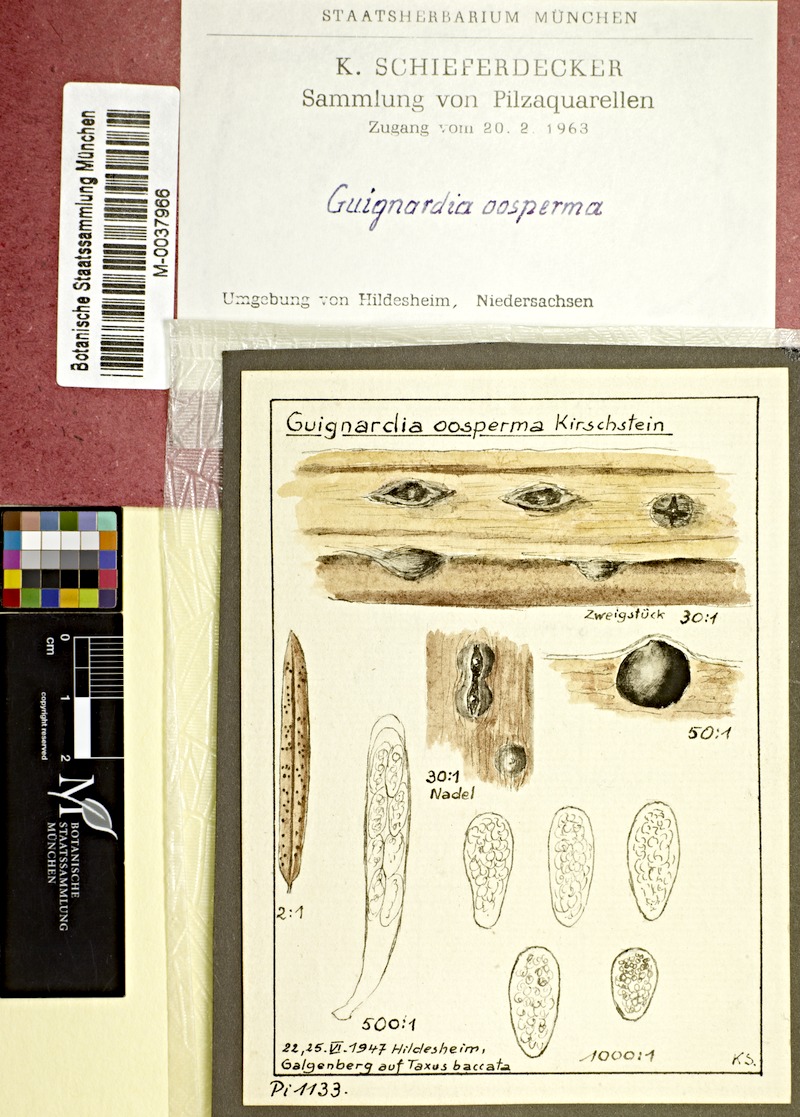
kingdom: Plantae
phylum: Tracheophyta
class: Pinopsida
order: Pinales
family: Taxaceae
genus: Taxus
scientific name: Taxus baccata
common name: Yew
